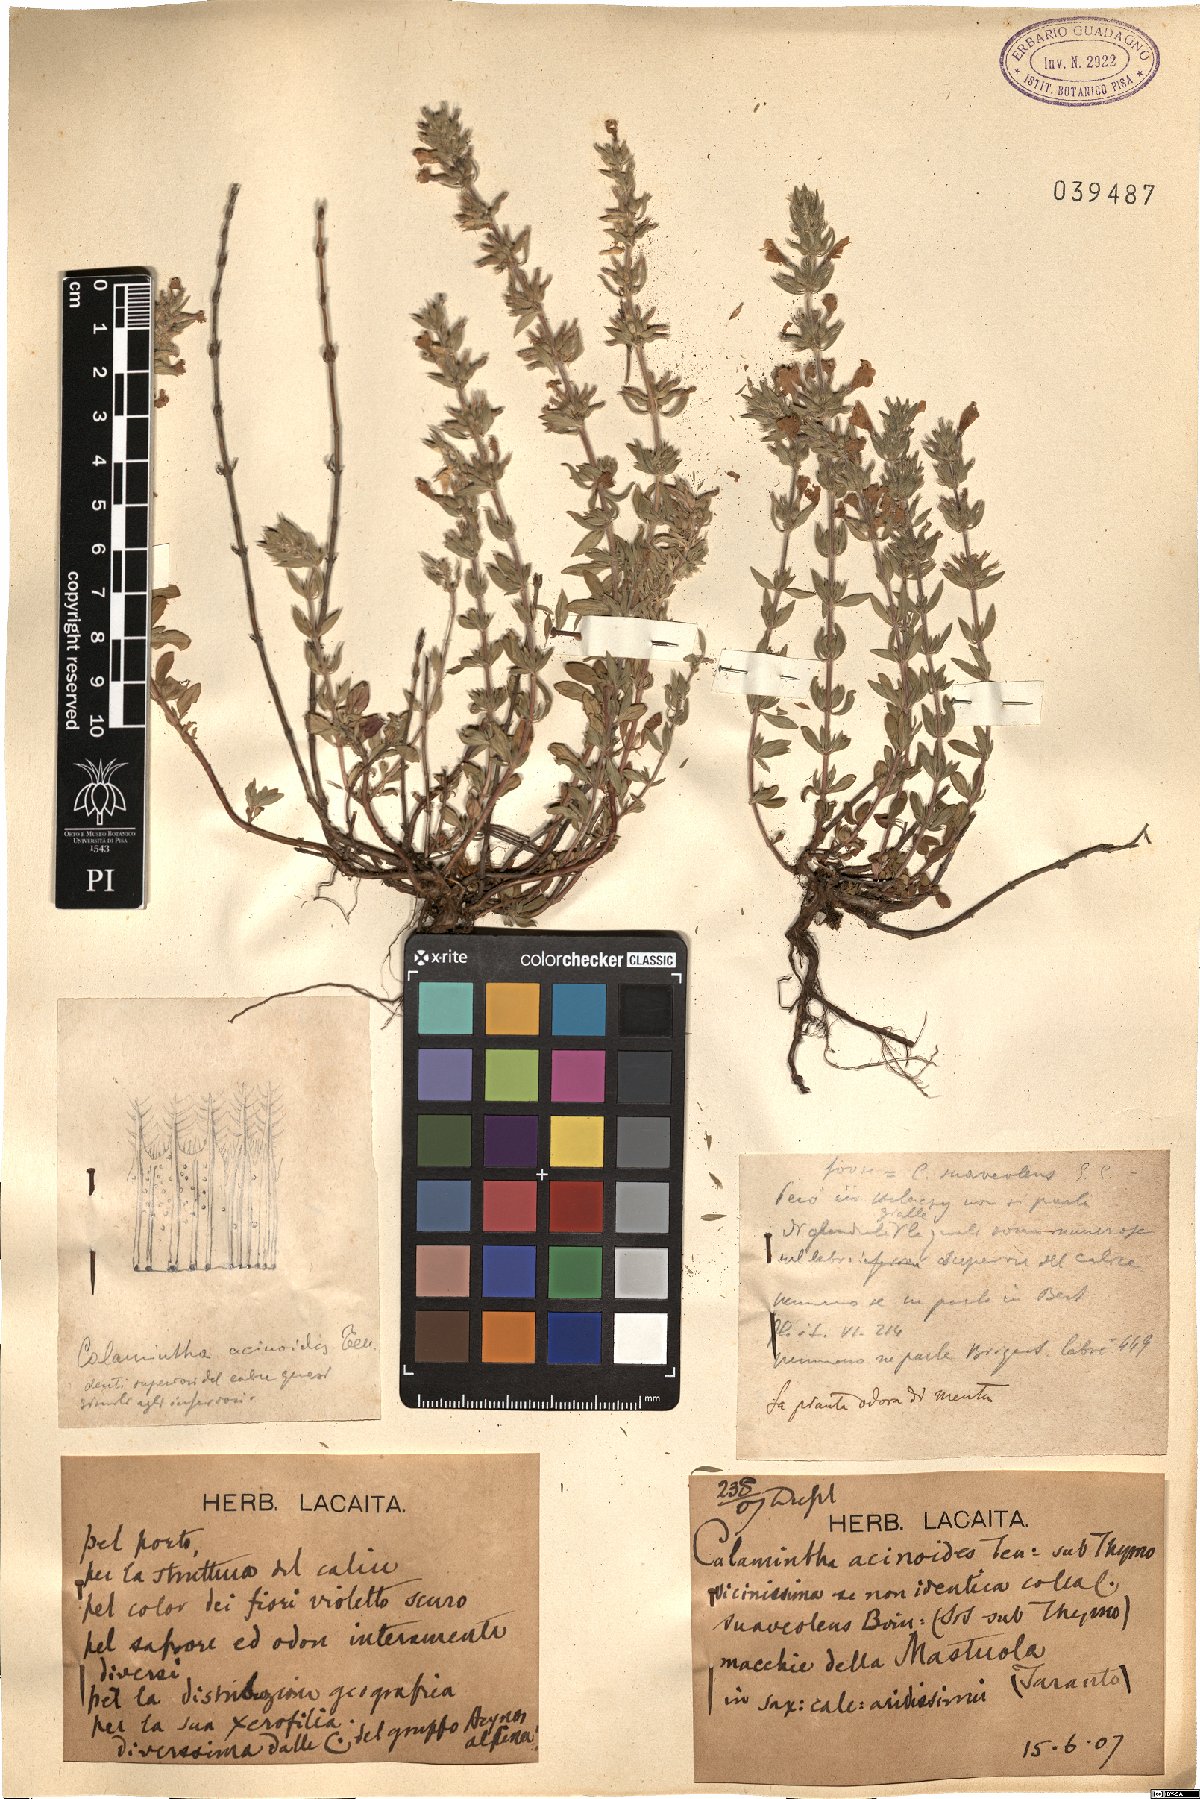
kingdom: Plantae
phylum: Tracheophyta
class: Magnoliopsida
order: Lamiales
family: Lamiaceae
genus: Clinopodium
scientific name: Clinopodium suaveolens
